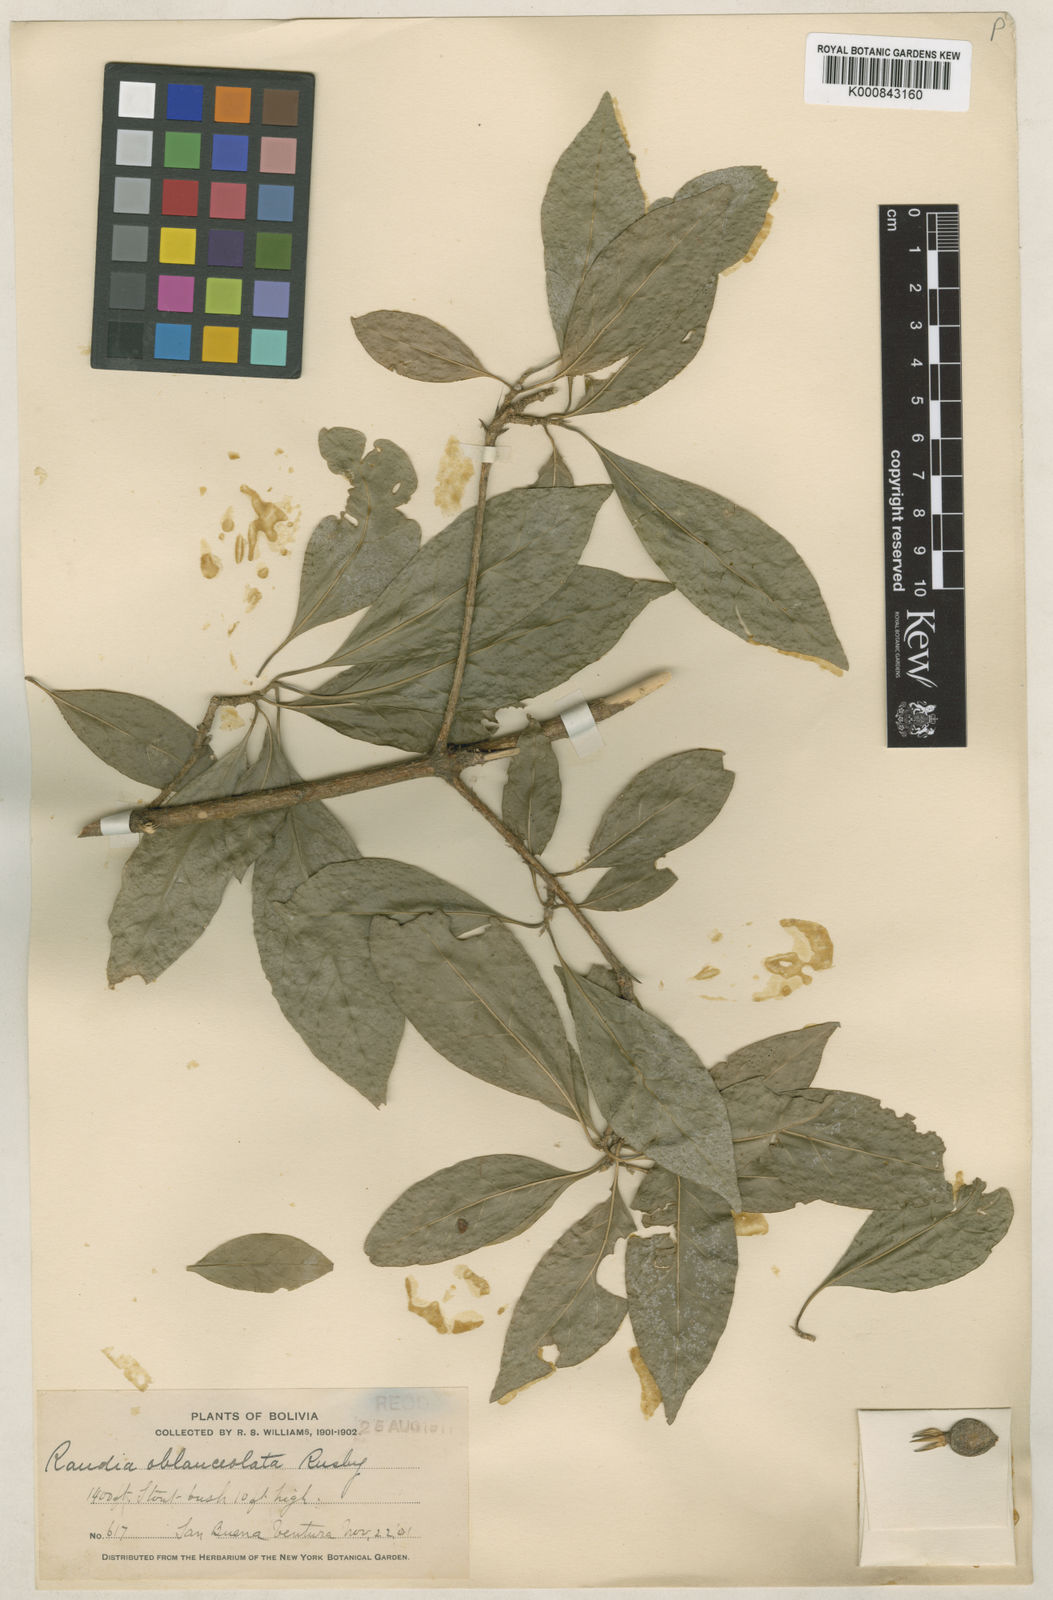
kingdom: Plantae
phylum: Tracheophyta
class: Magnoliopsida
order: Gentianales
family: Rubiaceae
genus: Randia
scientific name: Randia armata
